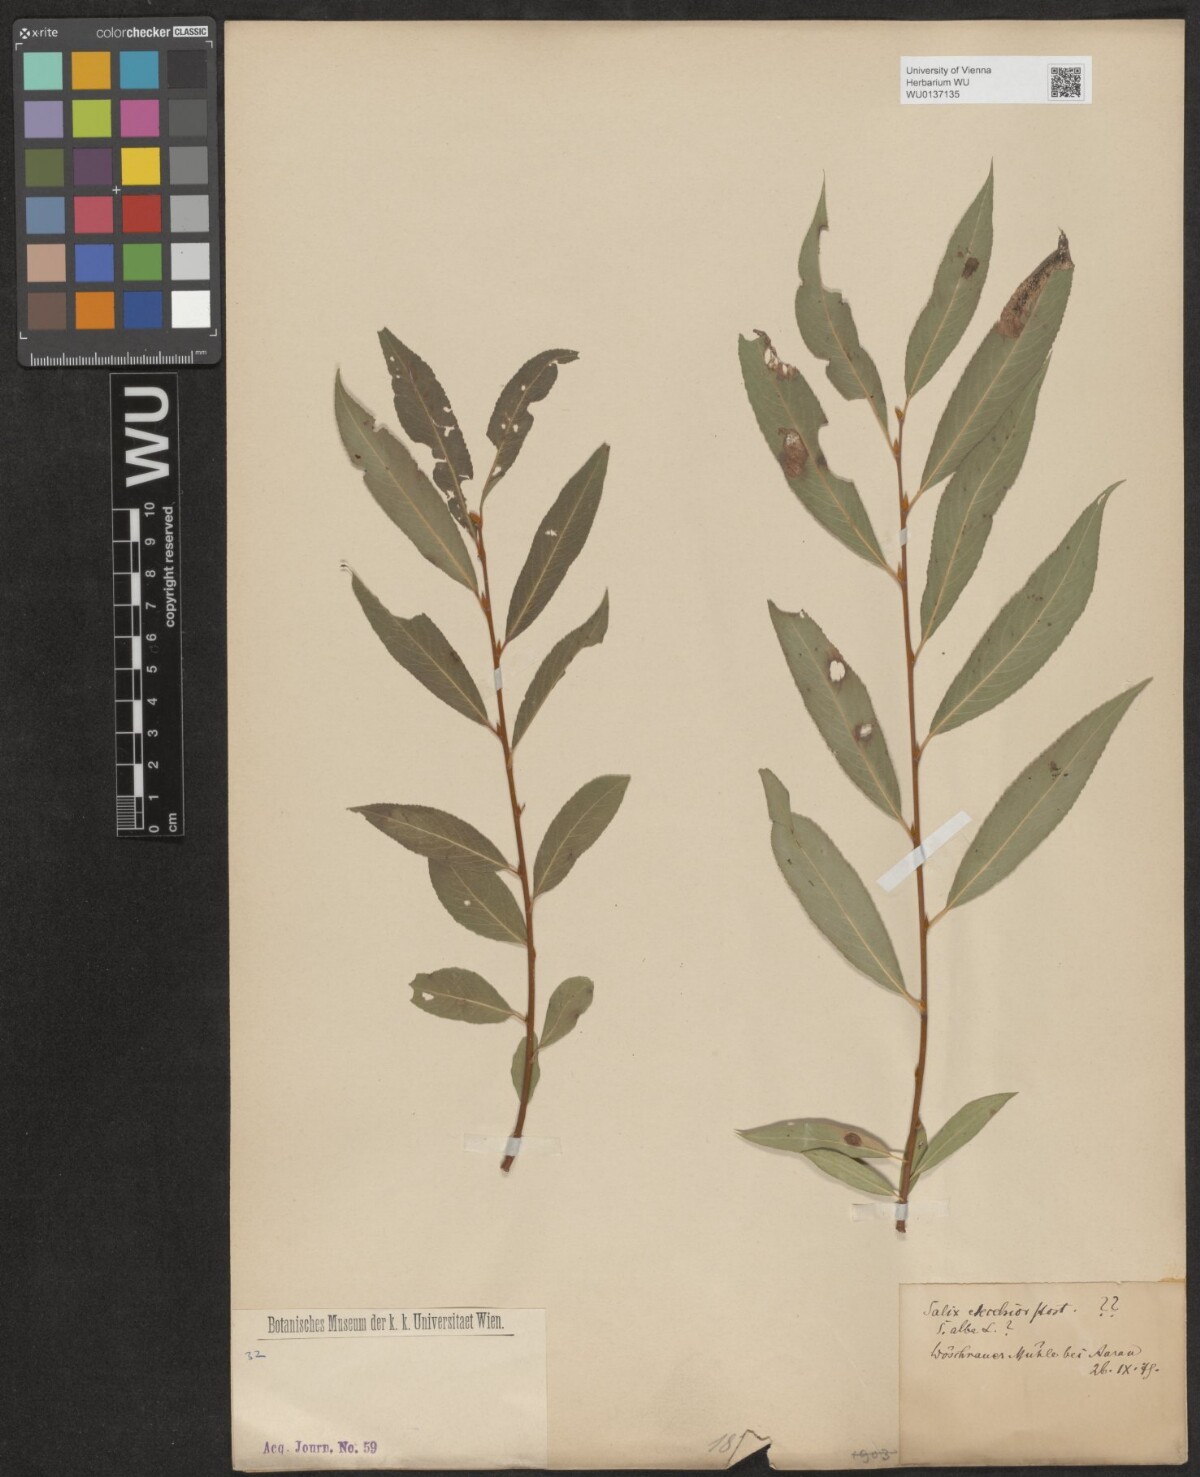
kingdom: Plantae
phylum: Tracheophyta
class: Magnoliopsida
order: Malpighiales
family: Salicaceae
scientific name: Salicaceae
